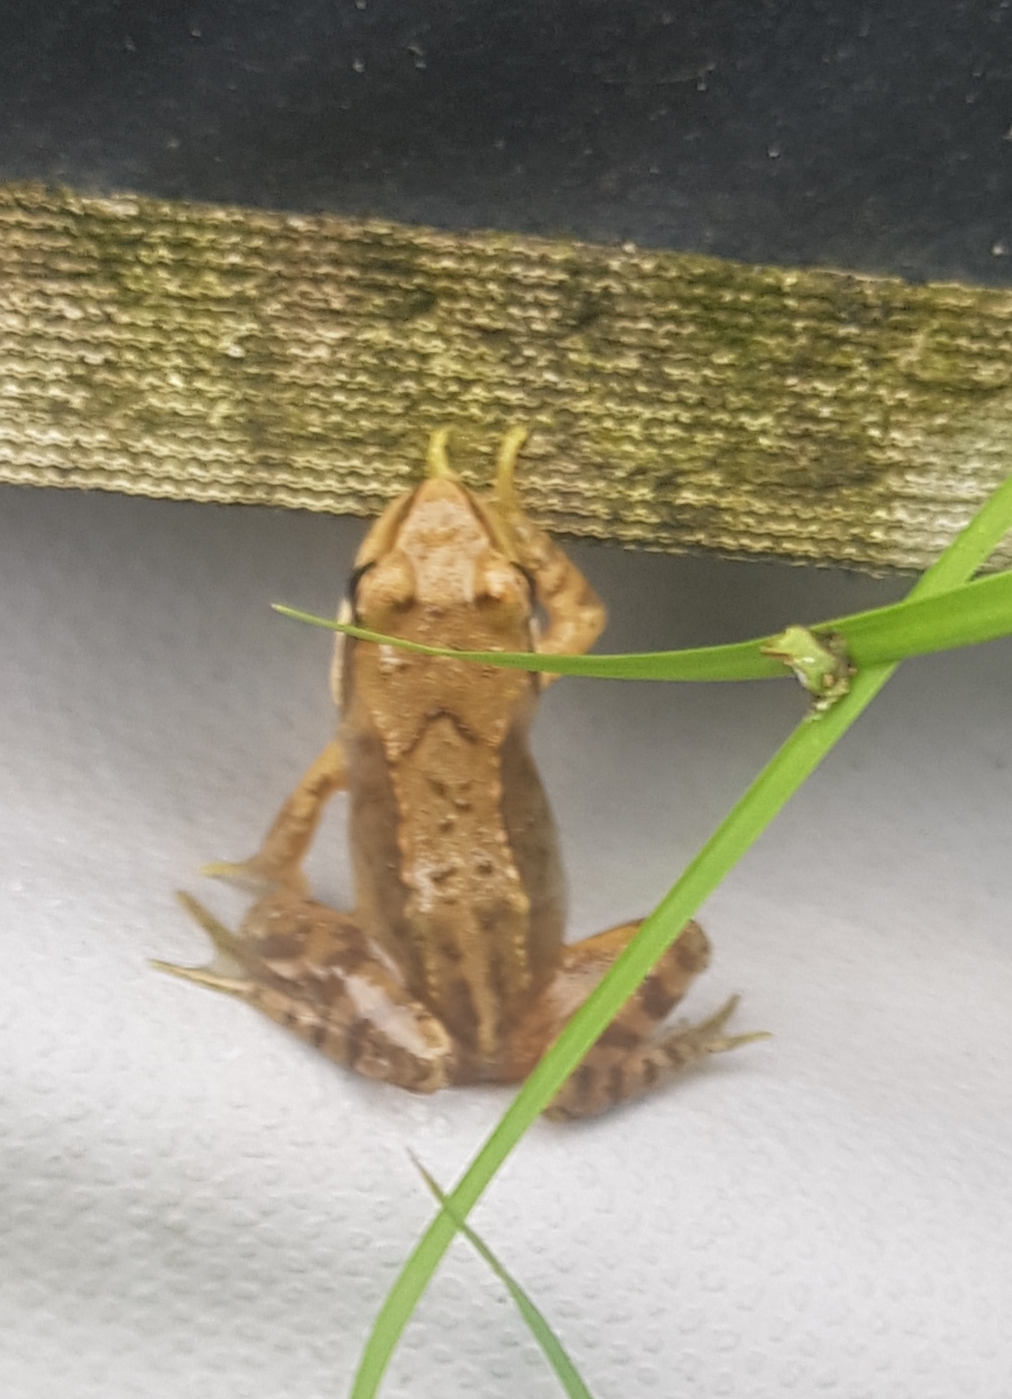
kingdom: Animalia
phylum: Chordata
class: Amphibia
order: Anura
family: Ranidae
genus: Rana
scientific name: Rana temporaria
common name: Butsnudet frø
